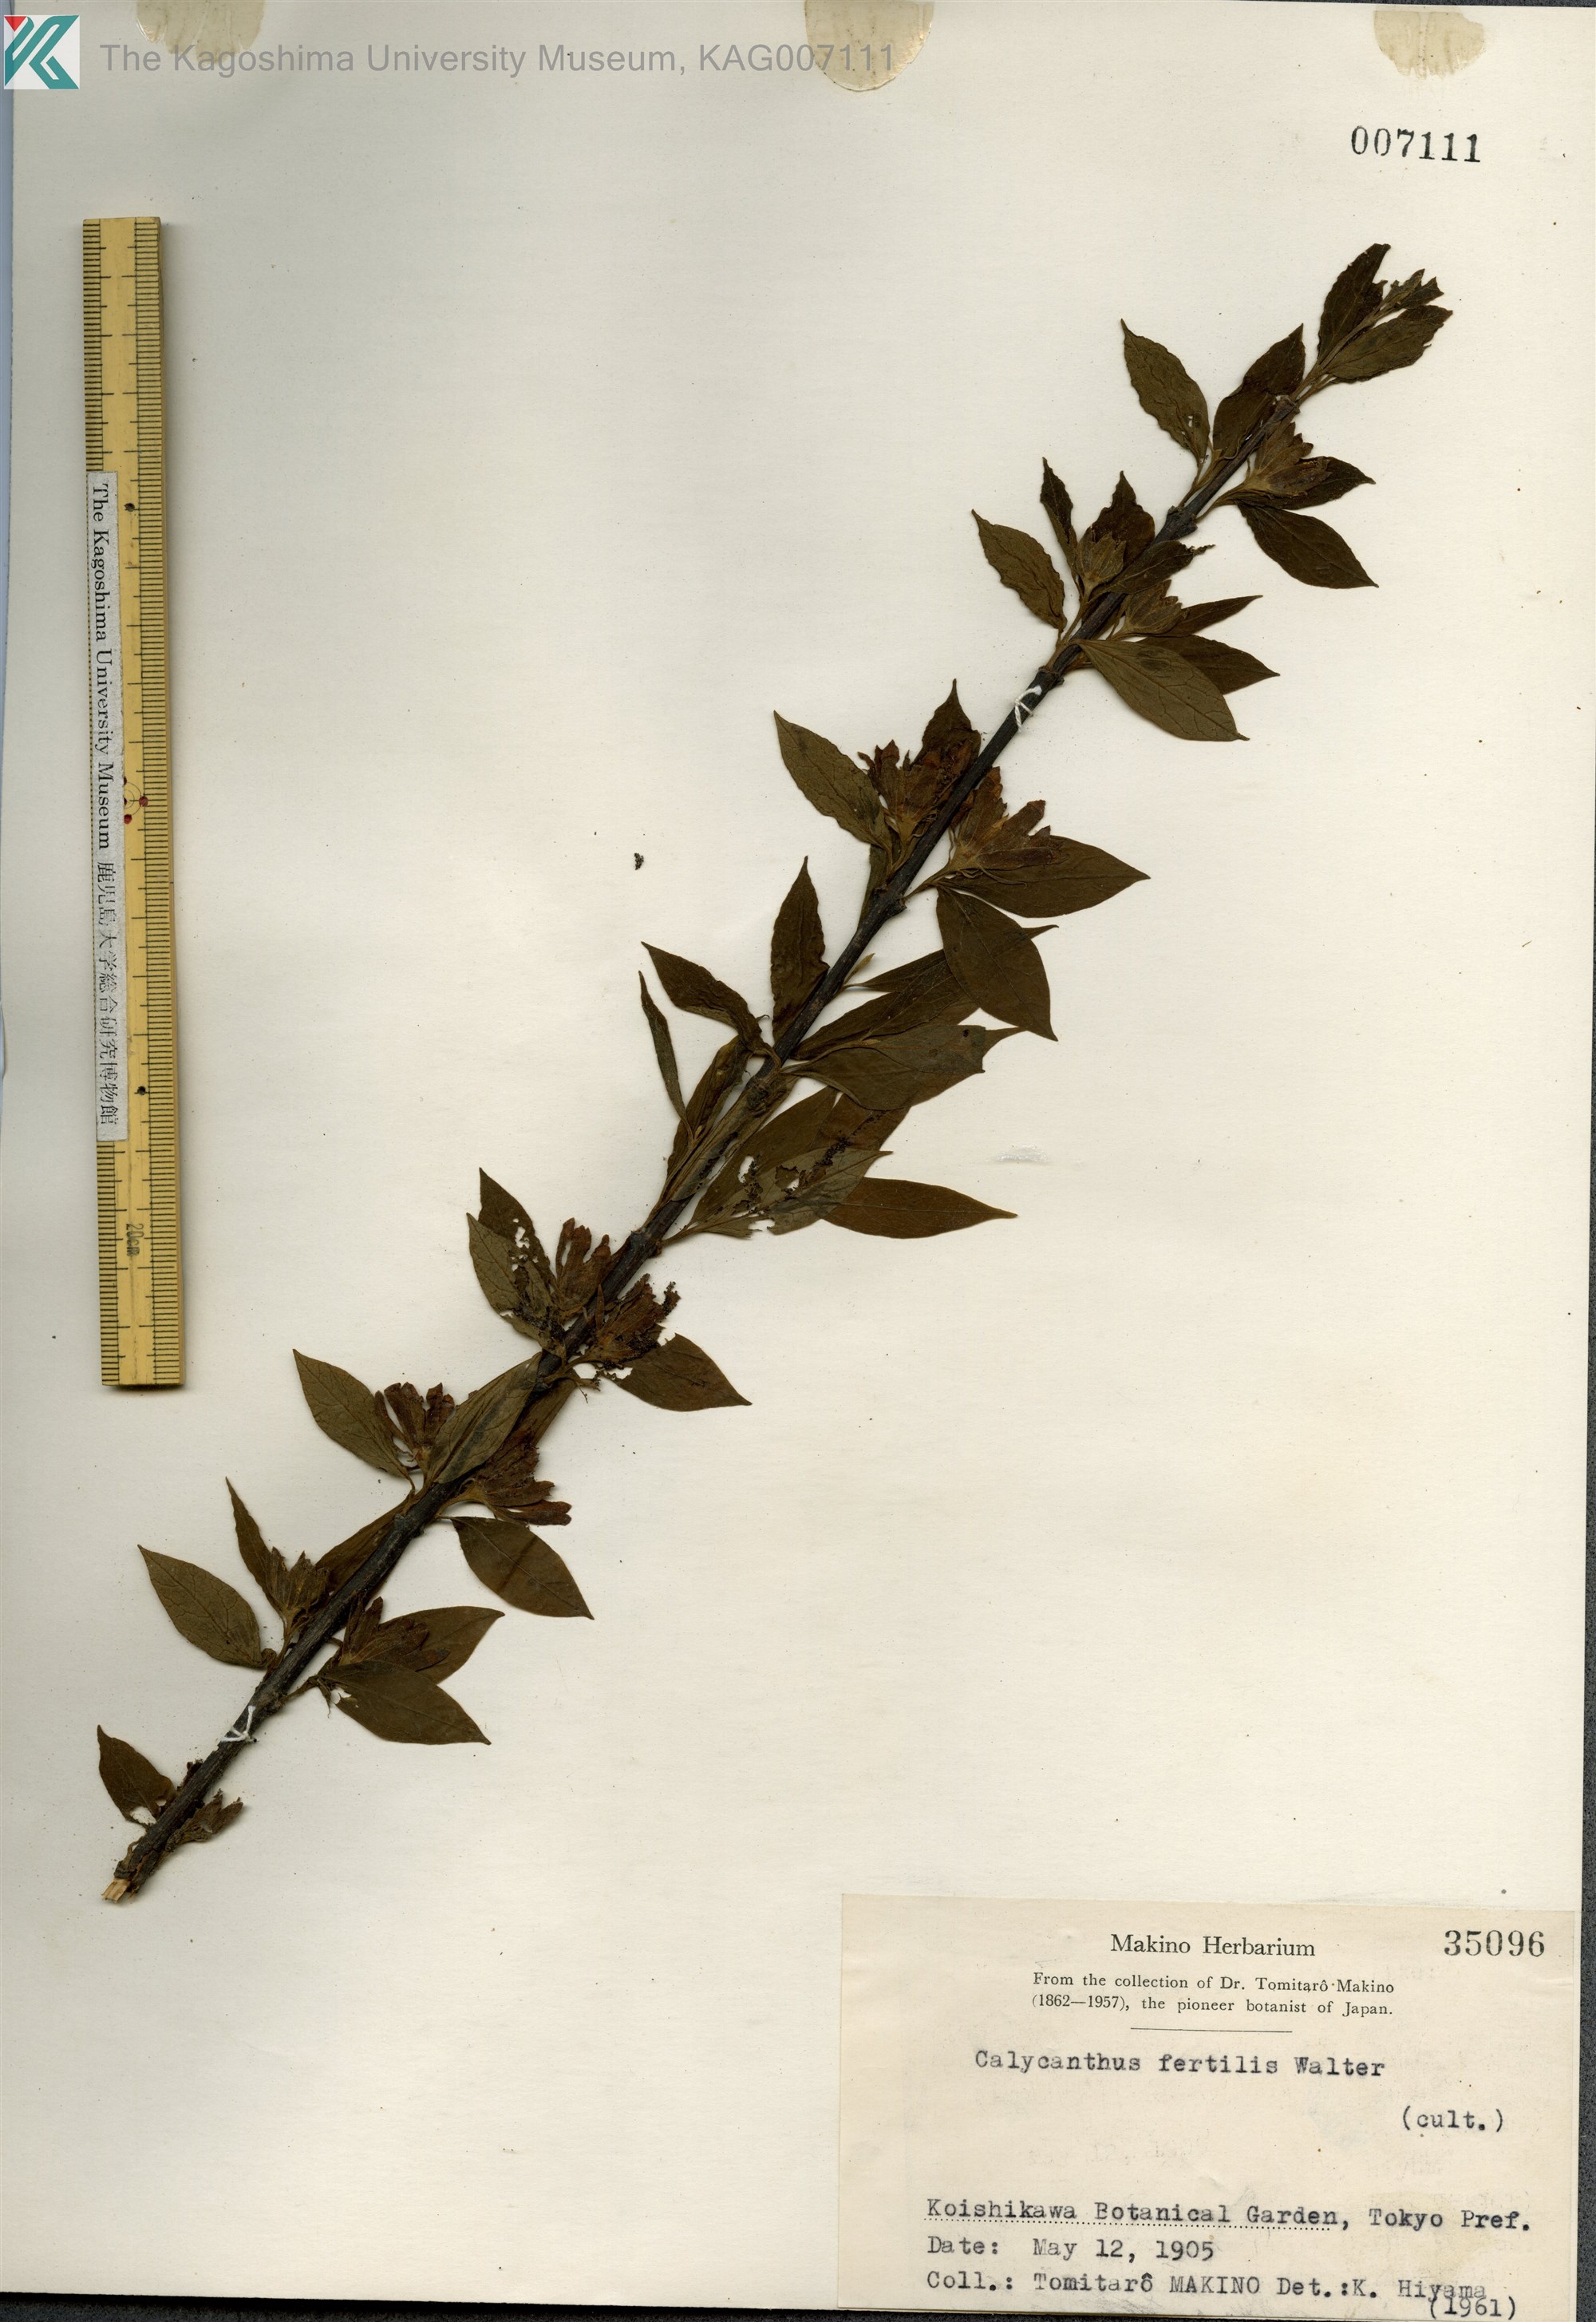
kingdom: Plantae
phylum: Tracheophyta
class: Magnoliopsida
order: Laurales
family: Calycanthaceae
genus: Calycanthus
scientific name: Calycanthus floridus
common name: Carolina-allspice
